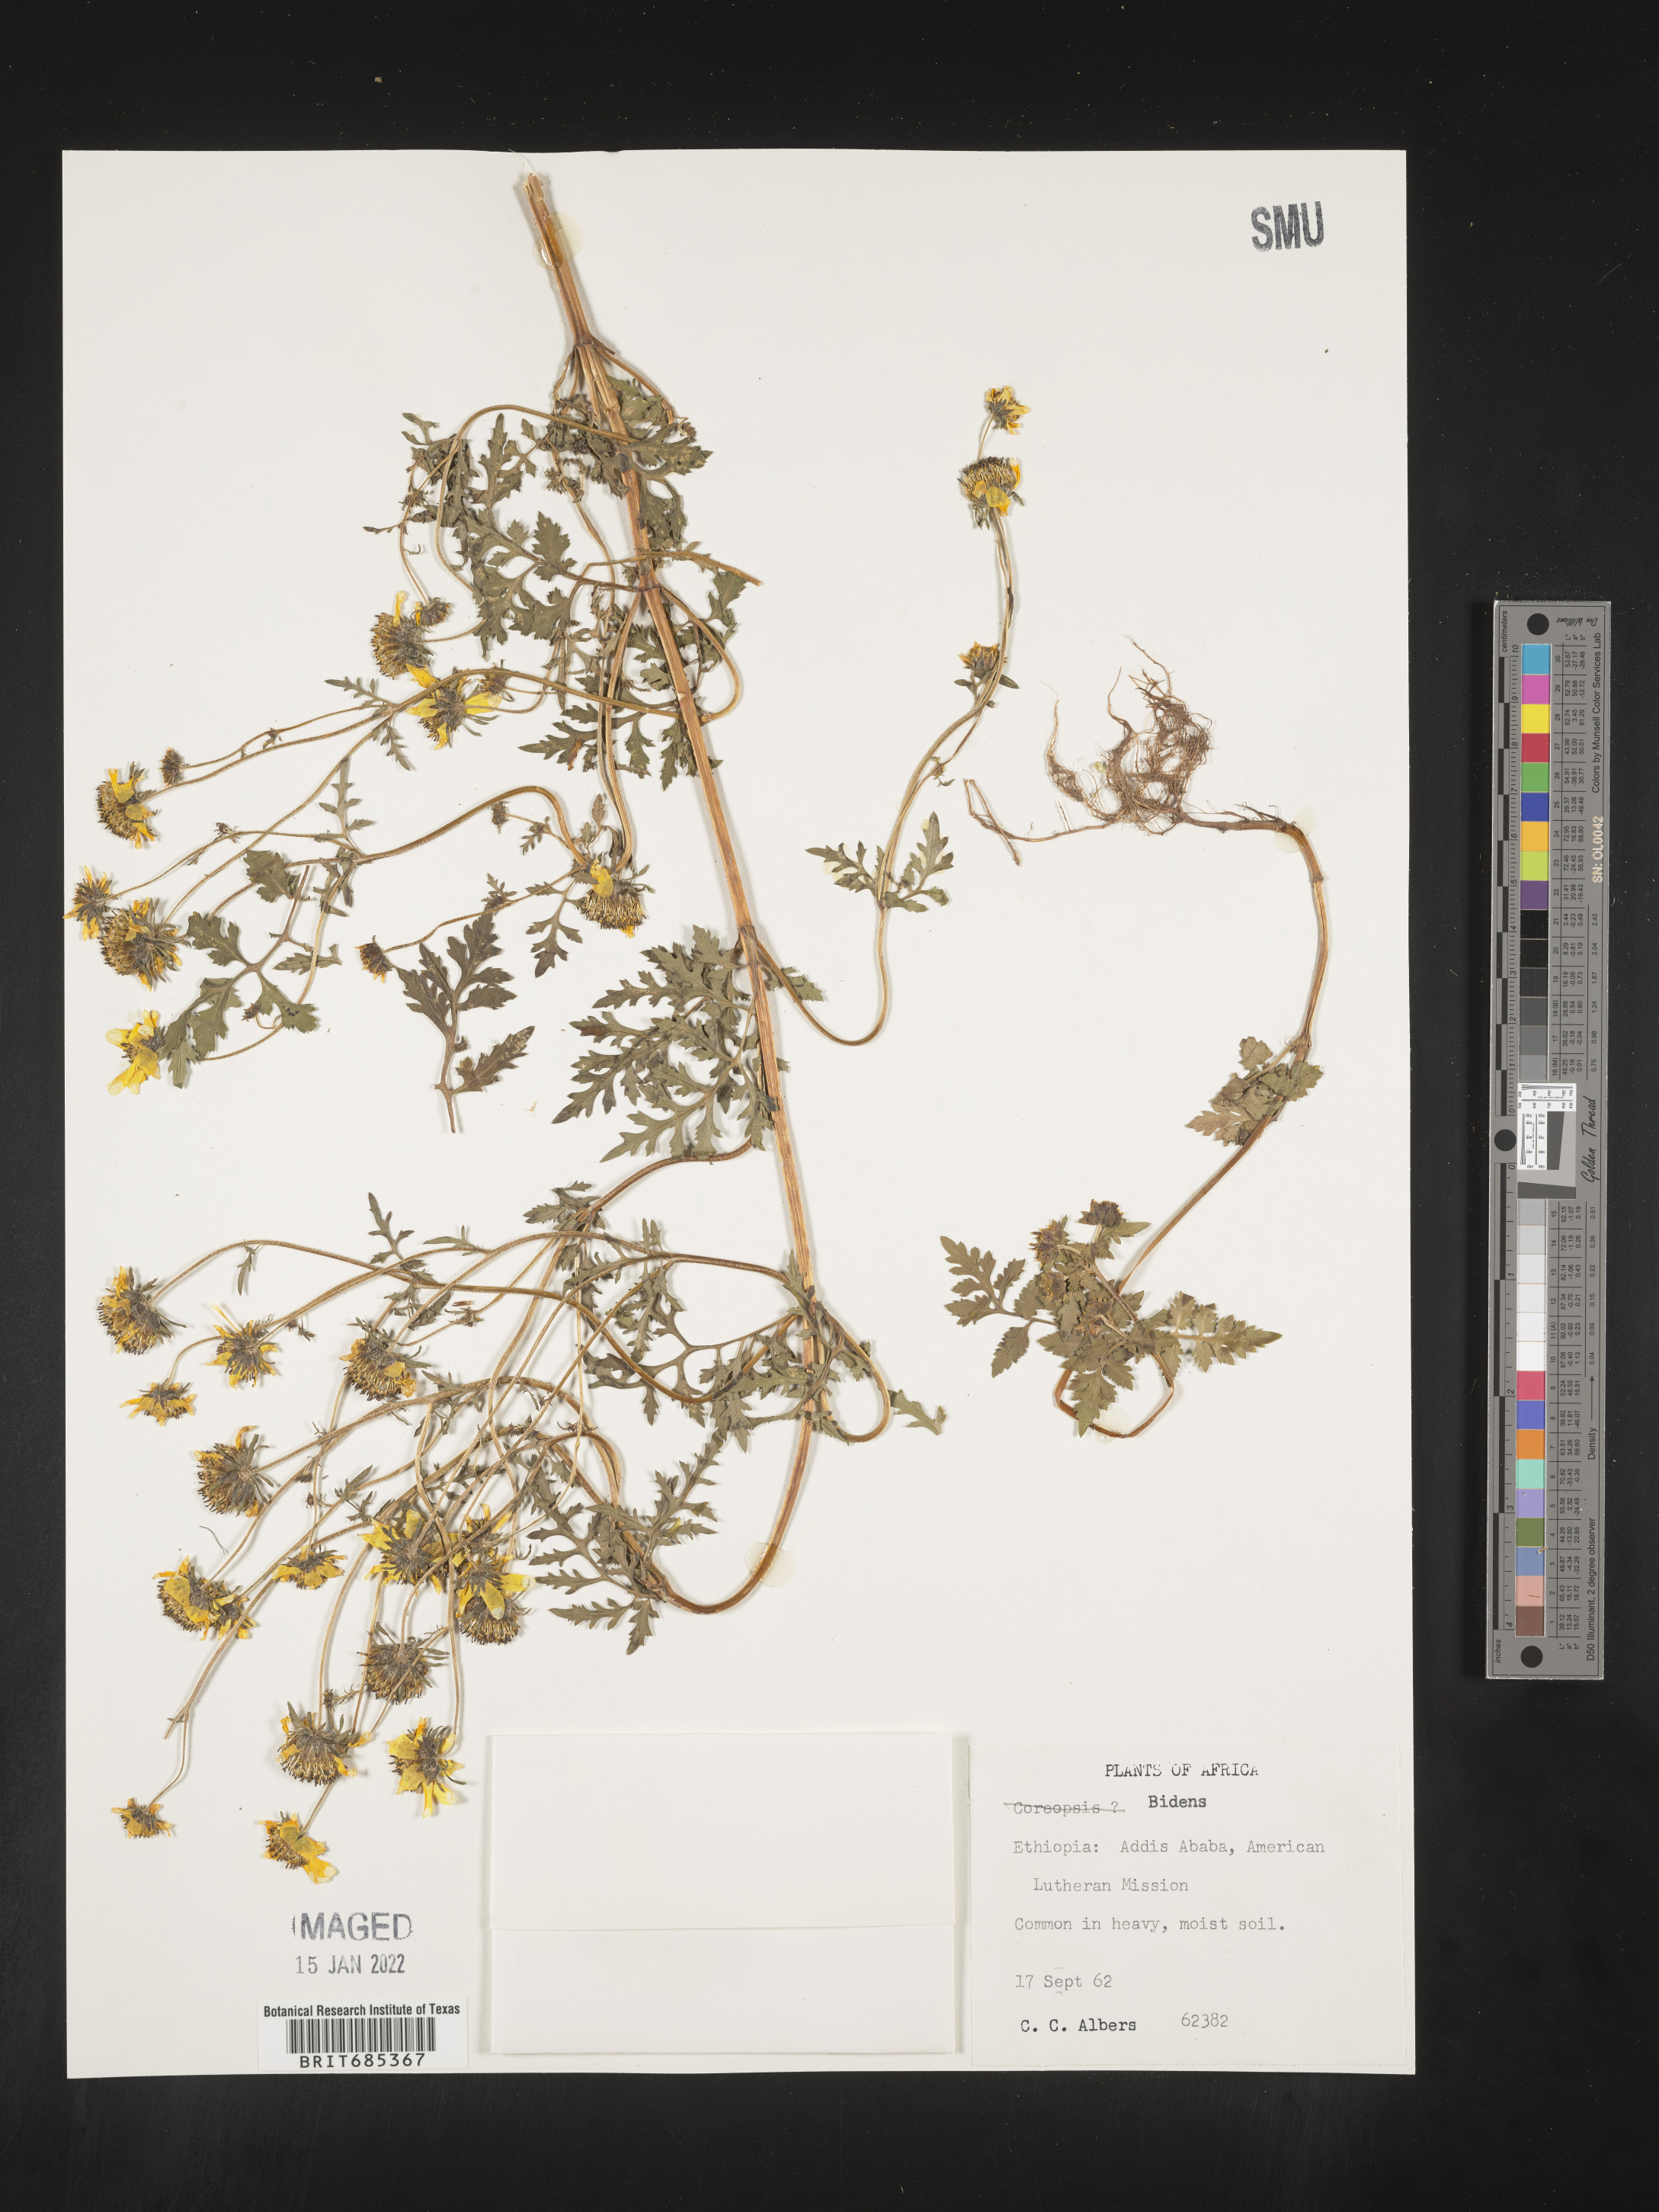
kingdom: Plantae
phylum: Tracheophyta
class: Magnoliopsida
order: Asterales
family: Asteraceae
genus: Bidens
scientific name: Bidens
